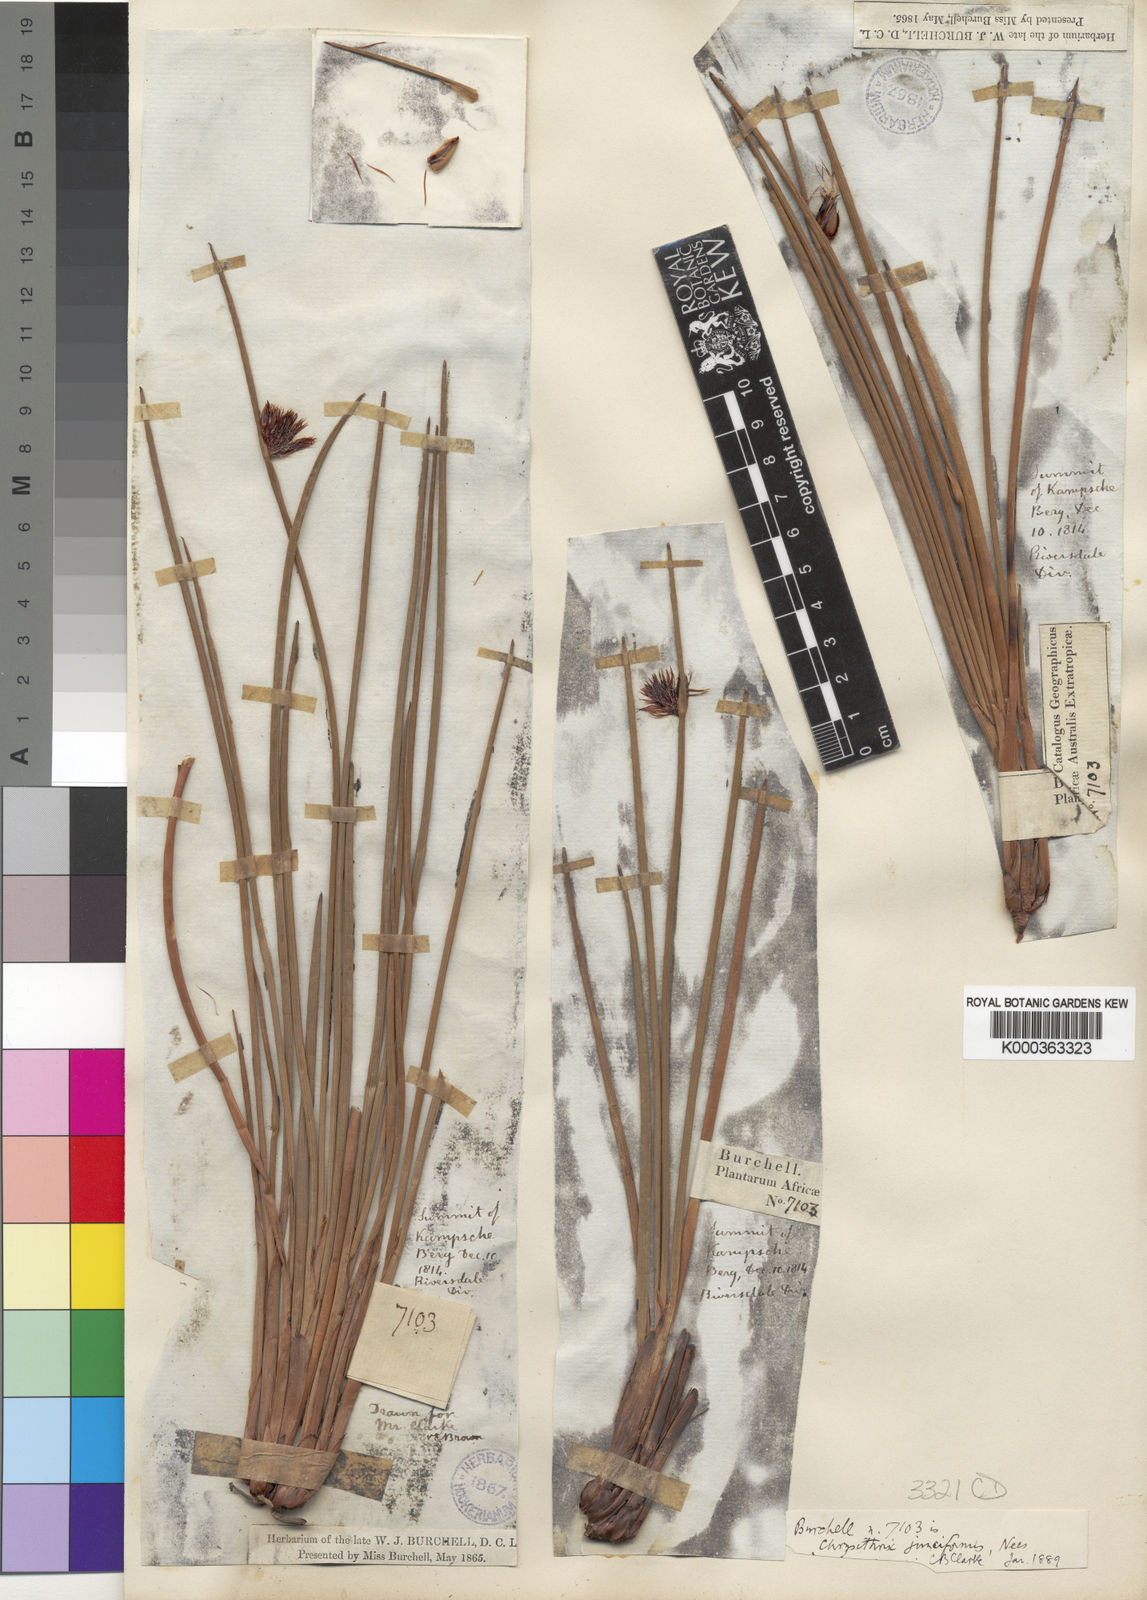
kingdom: Plantae
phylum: Tracheophyta
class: Liliopsida
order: Poales
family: Cyperaceae
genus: Chrysitrix
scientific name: Chrysitrix junciformis
